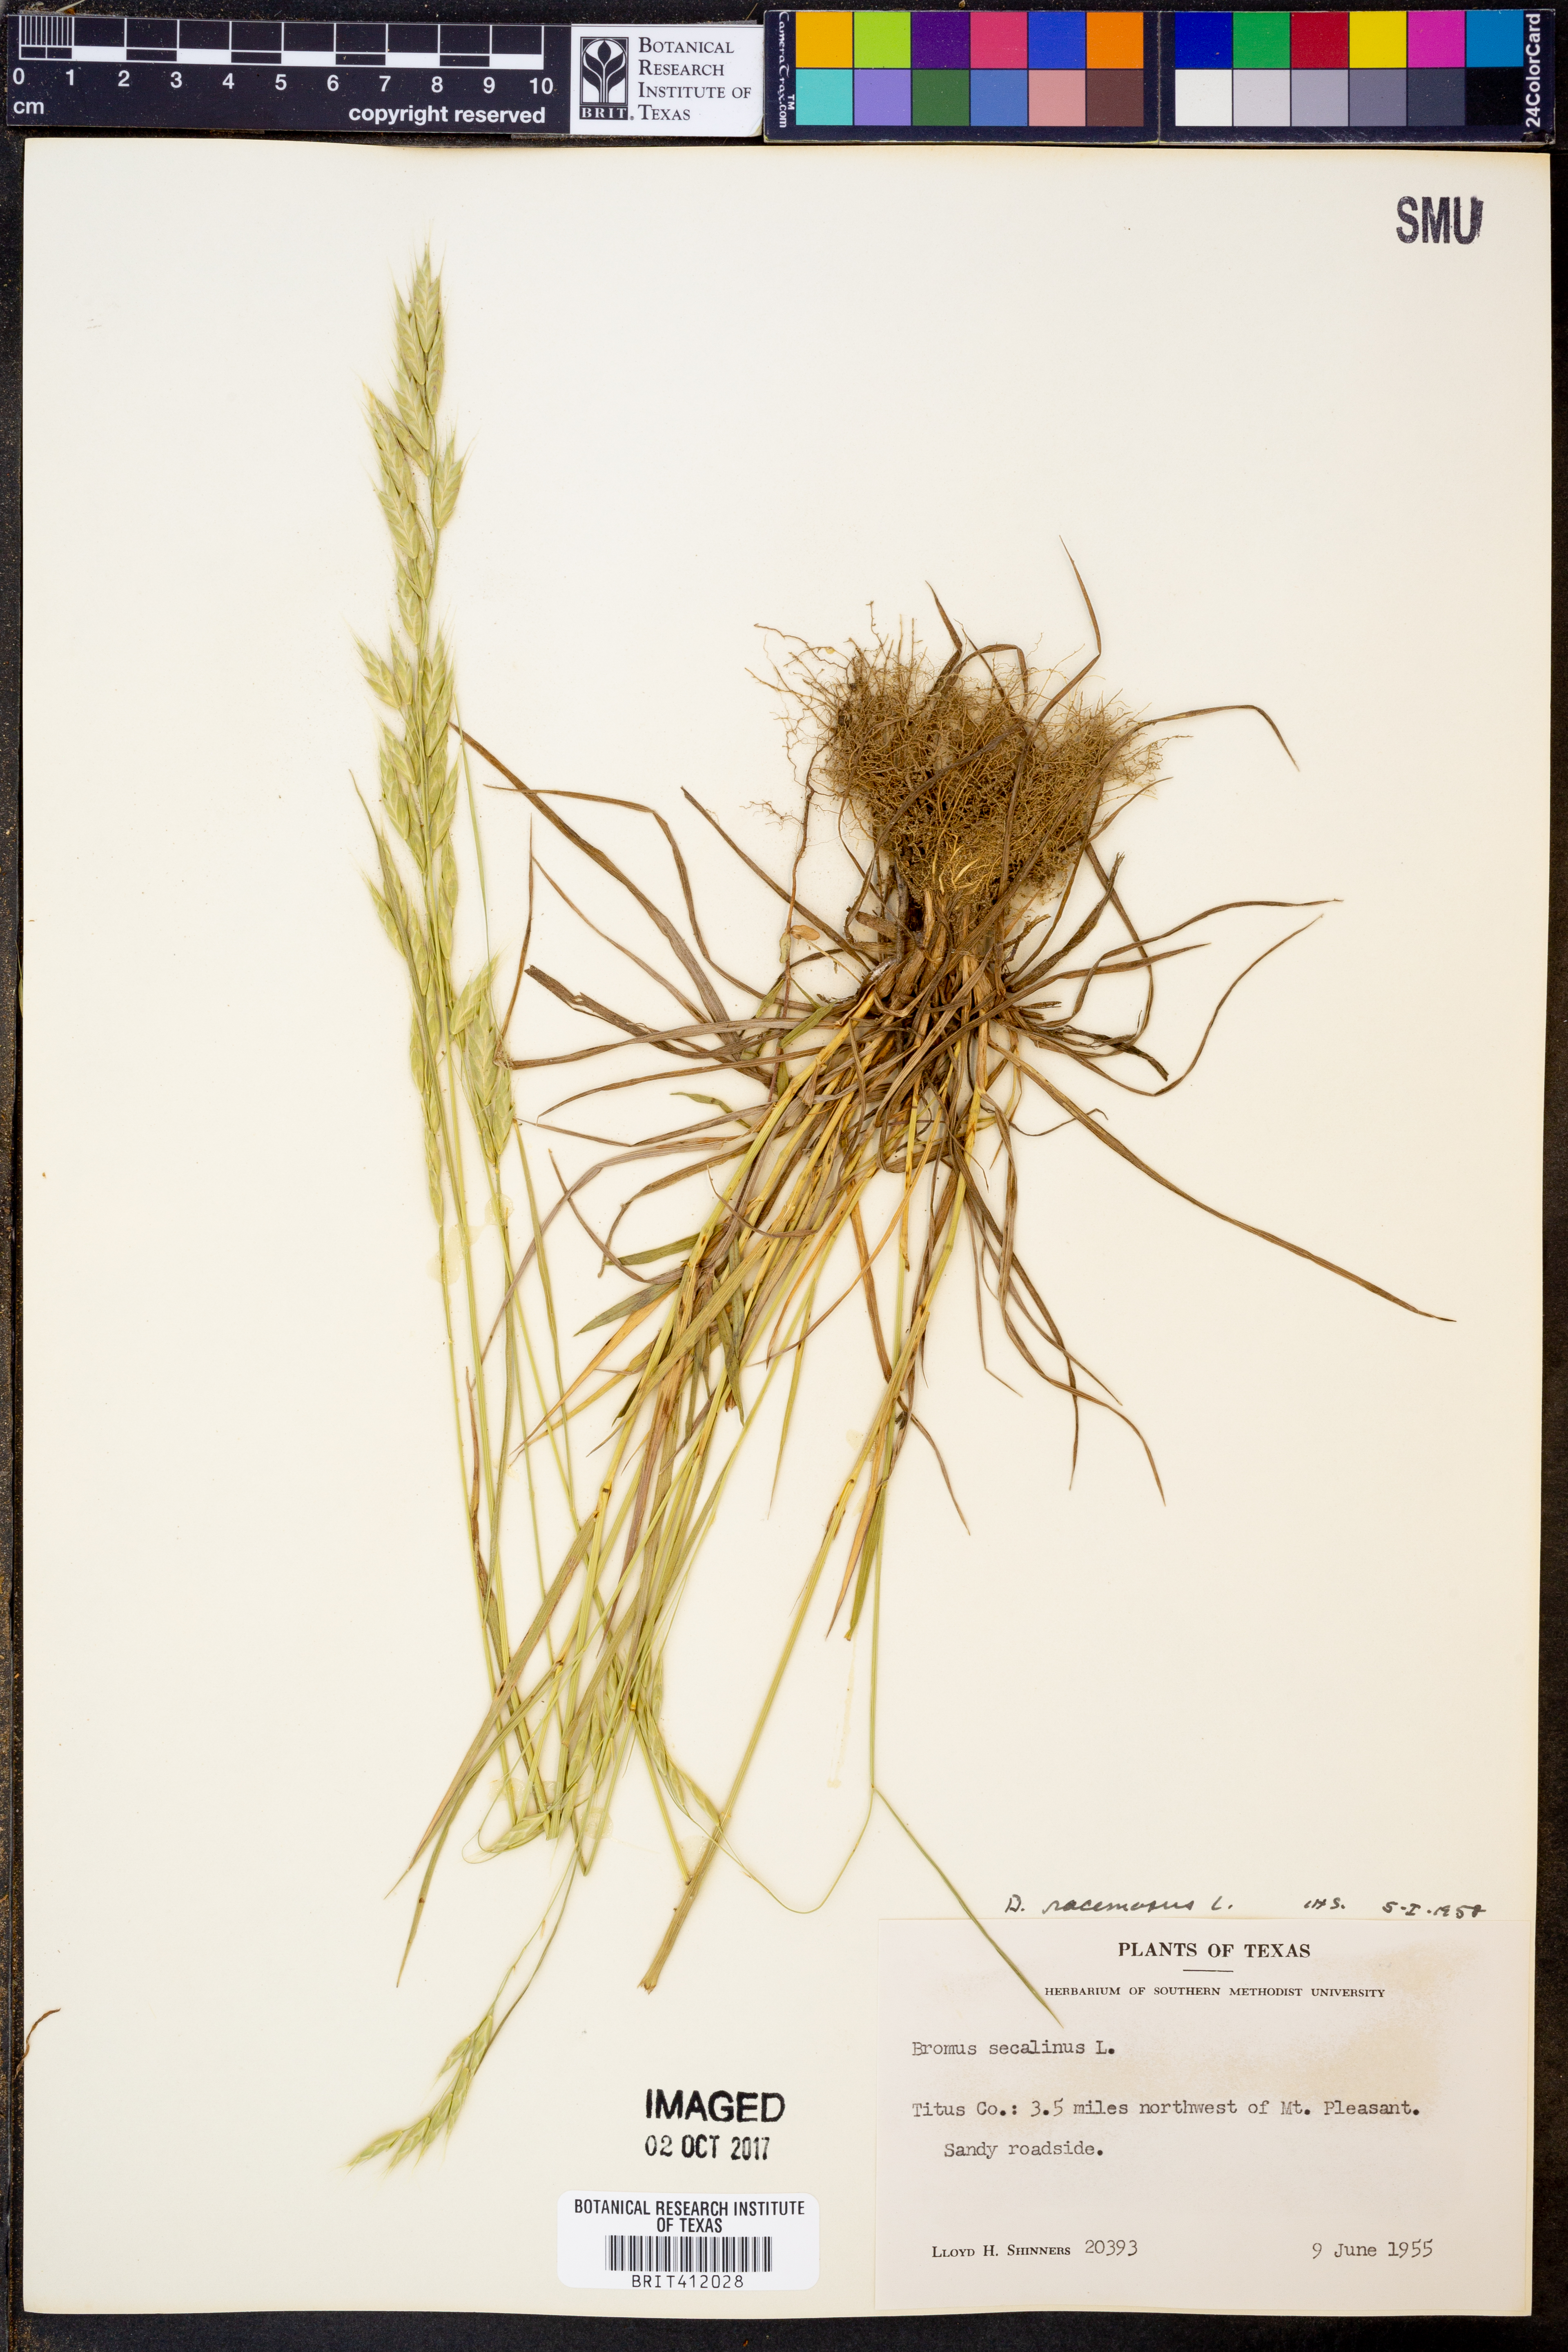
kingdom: Plantae
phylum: Tracheophyta
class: Liliopsida
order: Poales
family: Poaceae
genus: Bromus
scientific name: Bromus racemosus
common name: Bald brome
